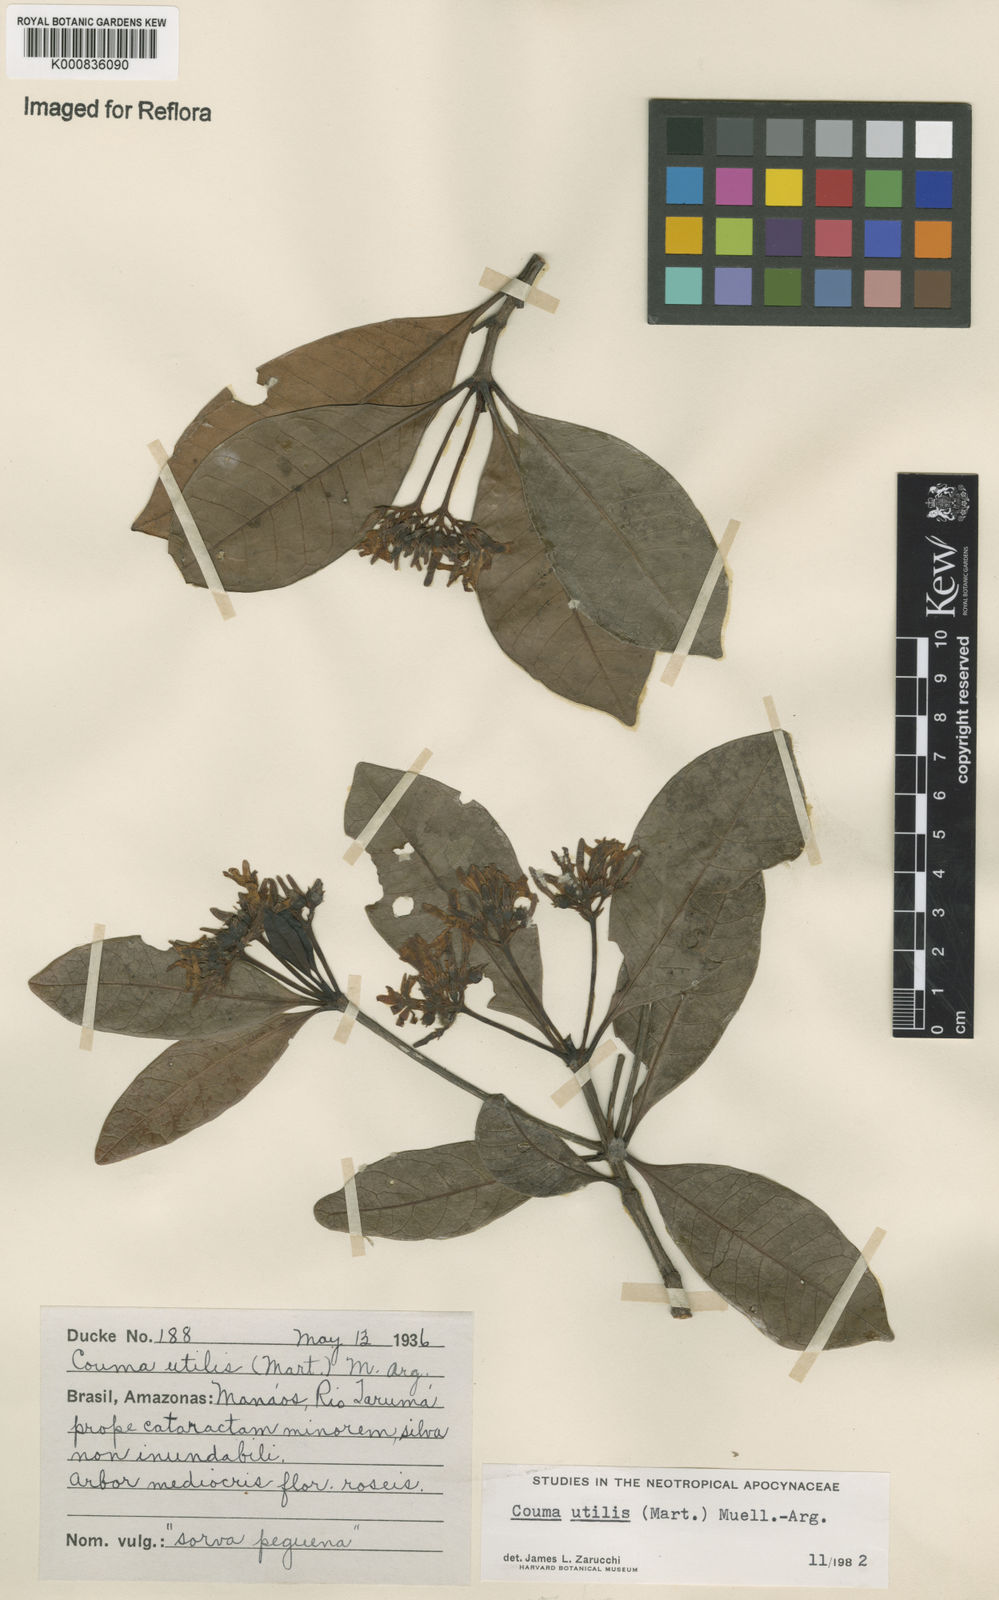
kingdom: Plantae
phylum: Tracheophyta
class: Magnoliopsida
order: Gentianales
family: Apocynaceae
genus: Couma
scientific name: Couma
